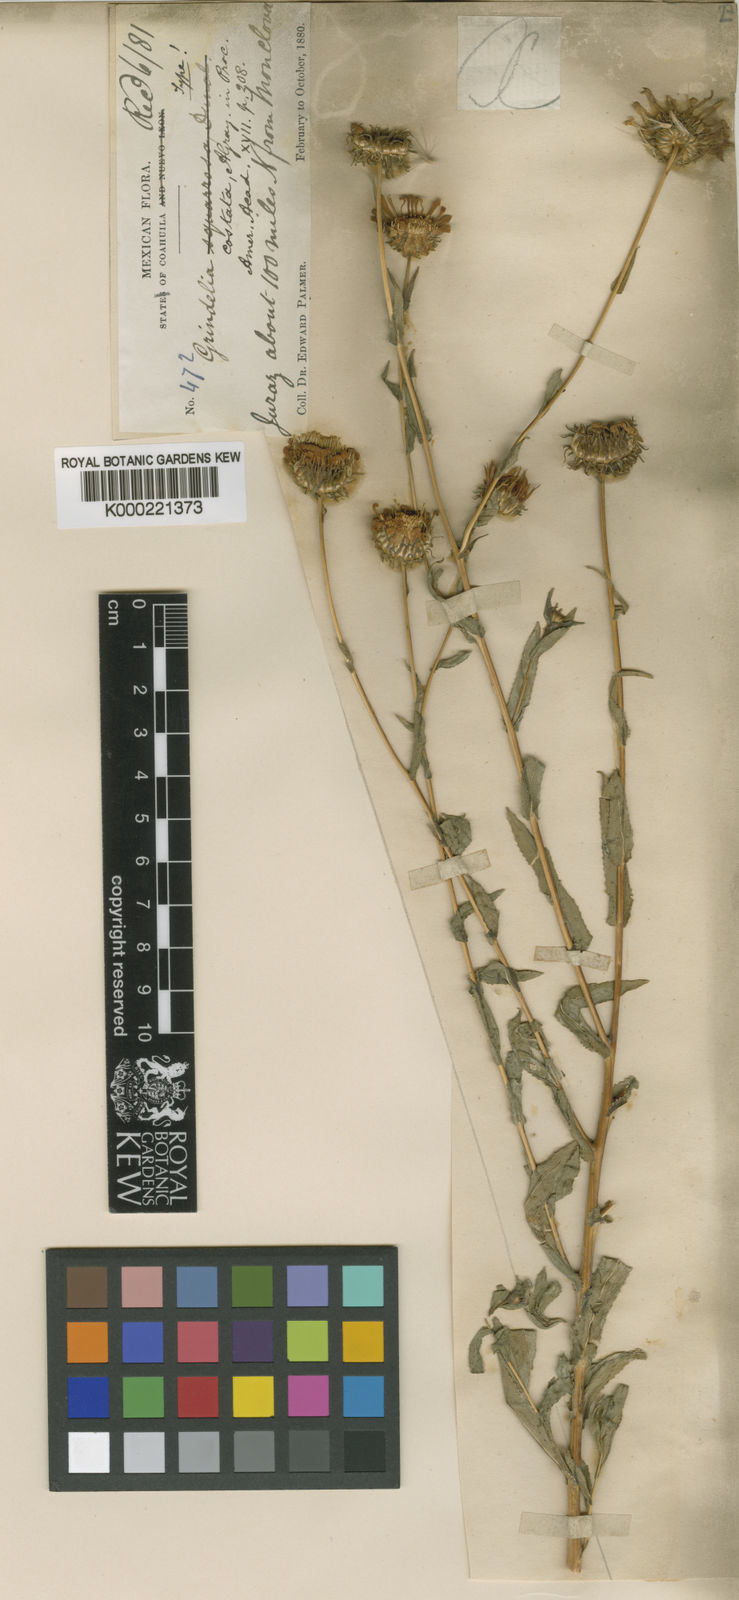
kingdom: Plantae
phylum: Tracheophyta
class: Magnoliopsida
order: Asterales
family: Asteraceae
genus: Grindelia
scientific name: Grindelia grandiflora
